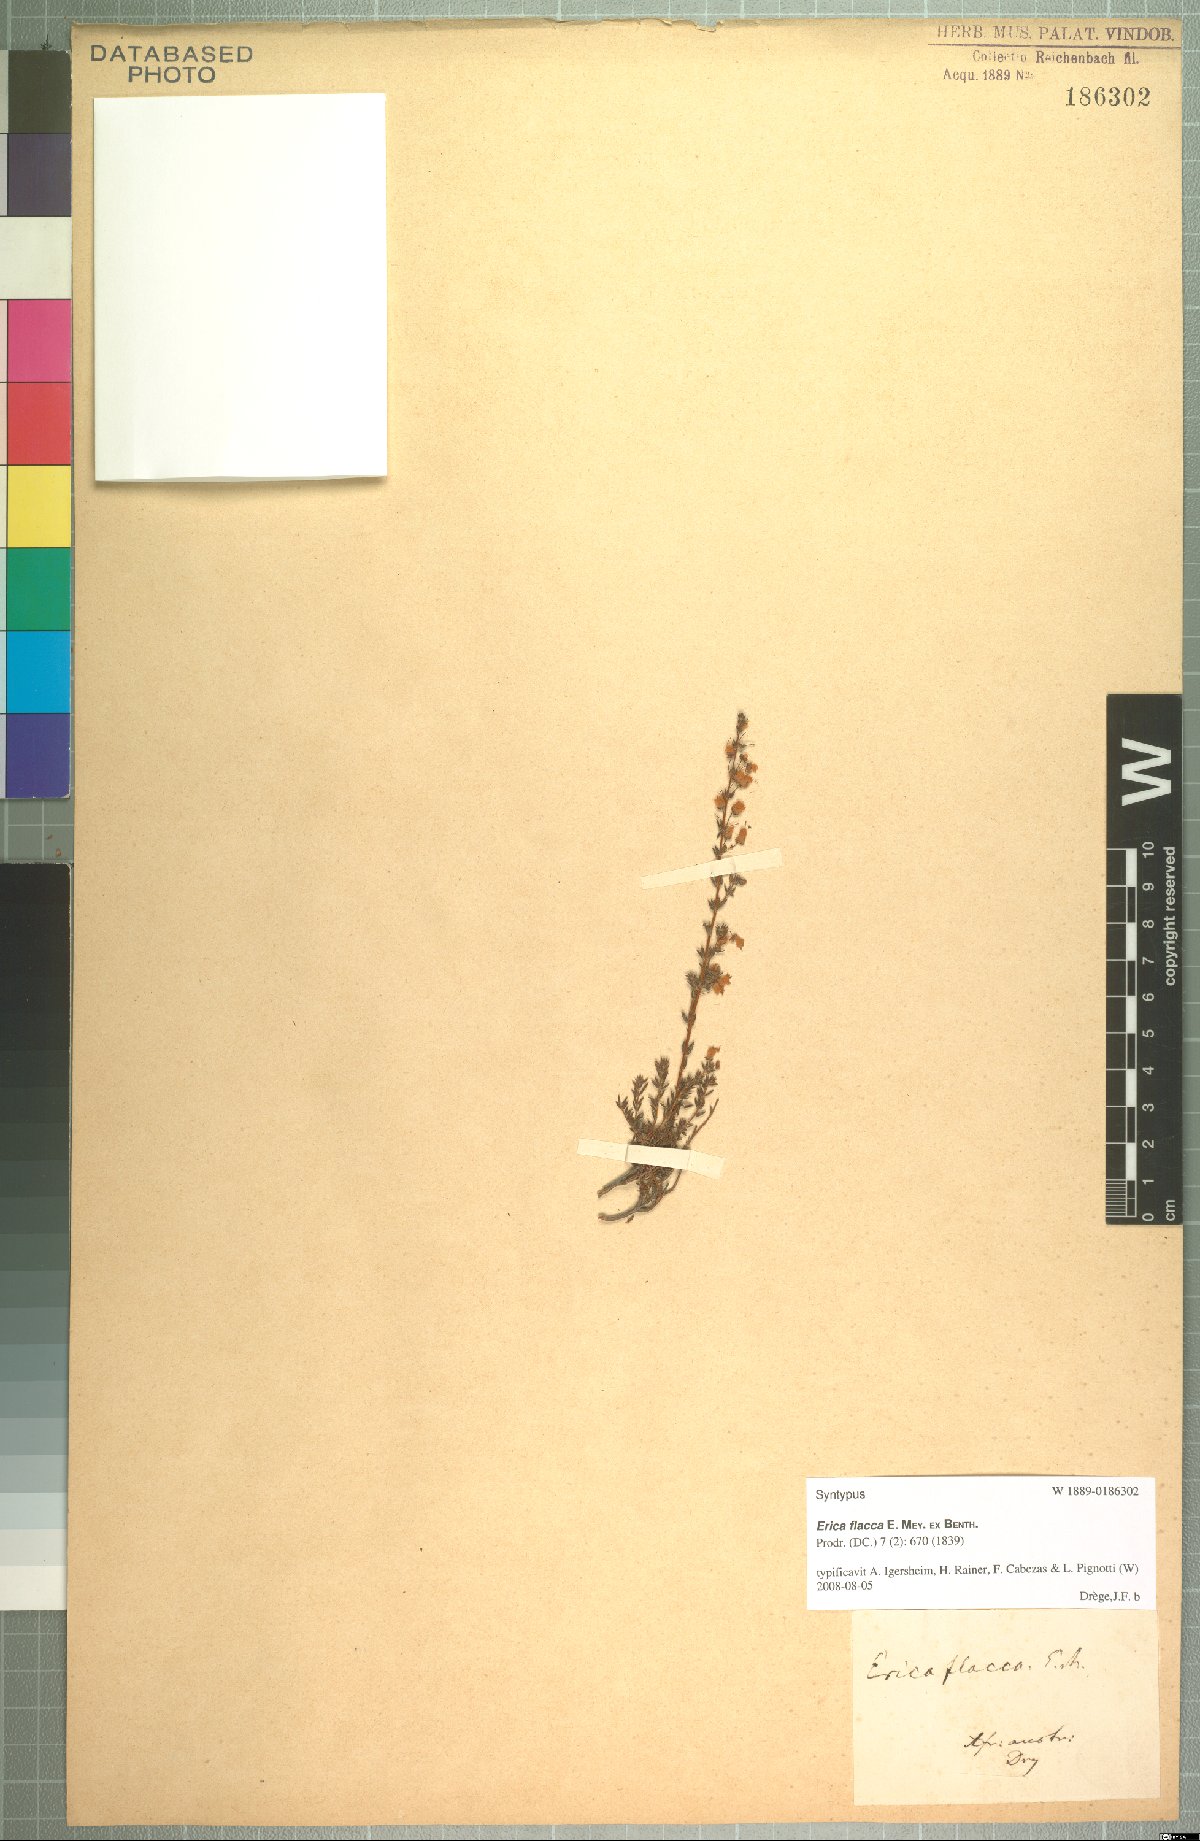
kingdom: Plantae
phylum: Tracheophyta
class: Magnoliopsida
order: Ericales
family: Ericaceae
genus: Erica
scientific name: Erica flacca
